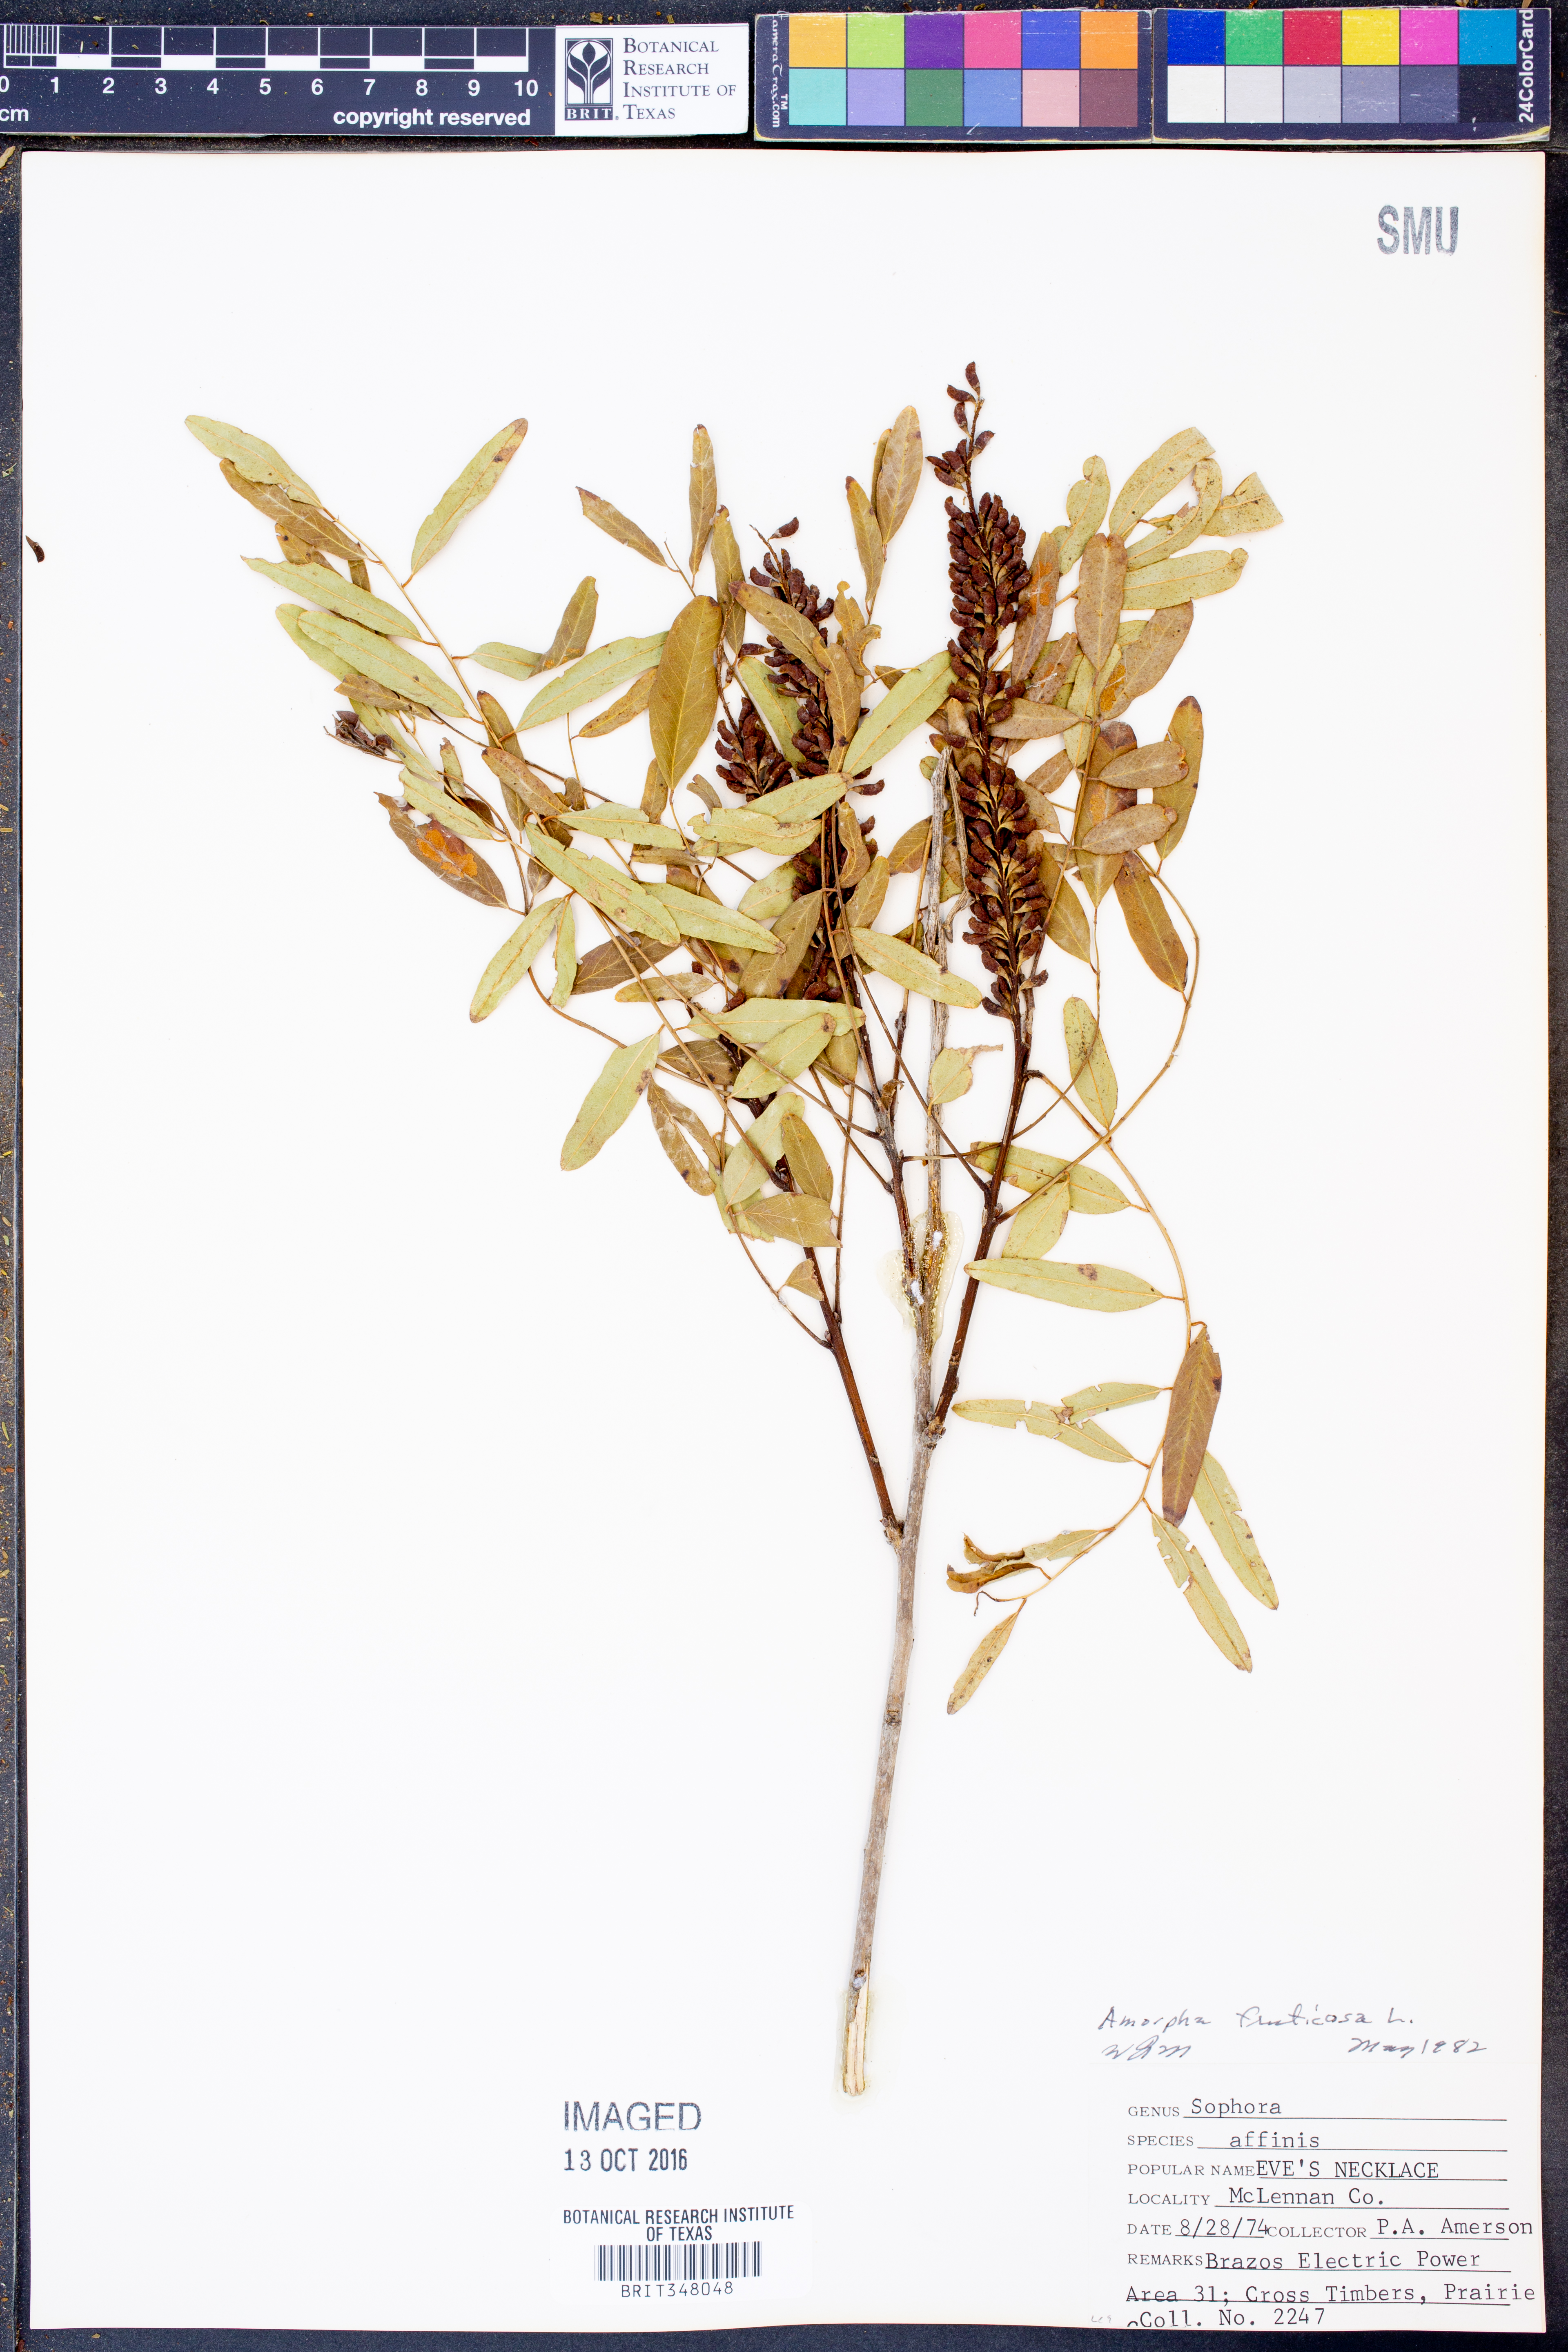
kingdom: Plantae
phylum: Tracheophyta
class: Magnoliopsida
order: Fabales
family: Fabaceae
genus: Amorpha
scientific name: Amorpha fruticosa
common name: False indigo
